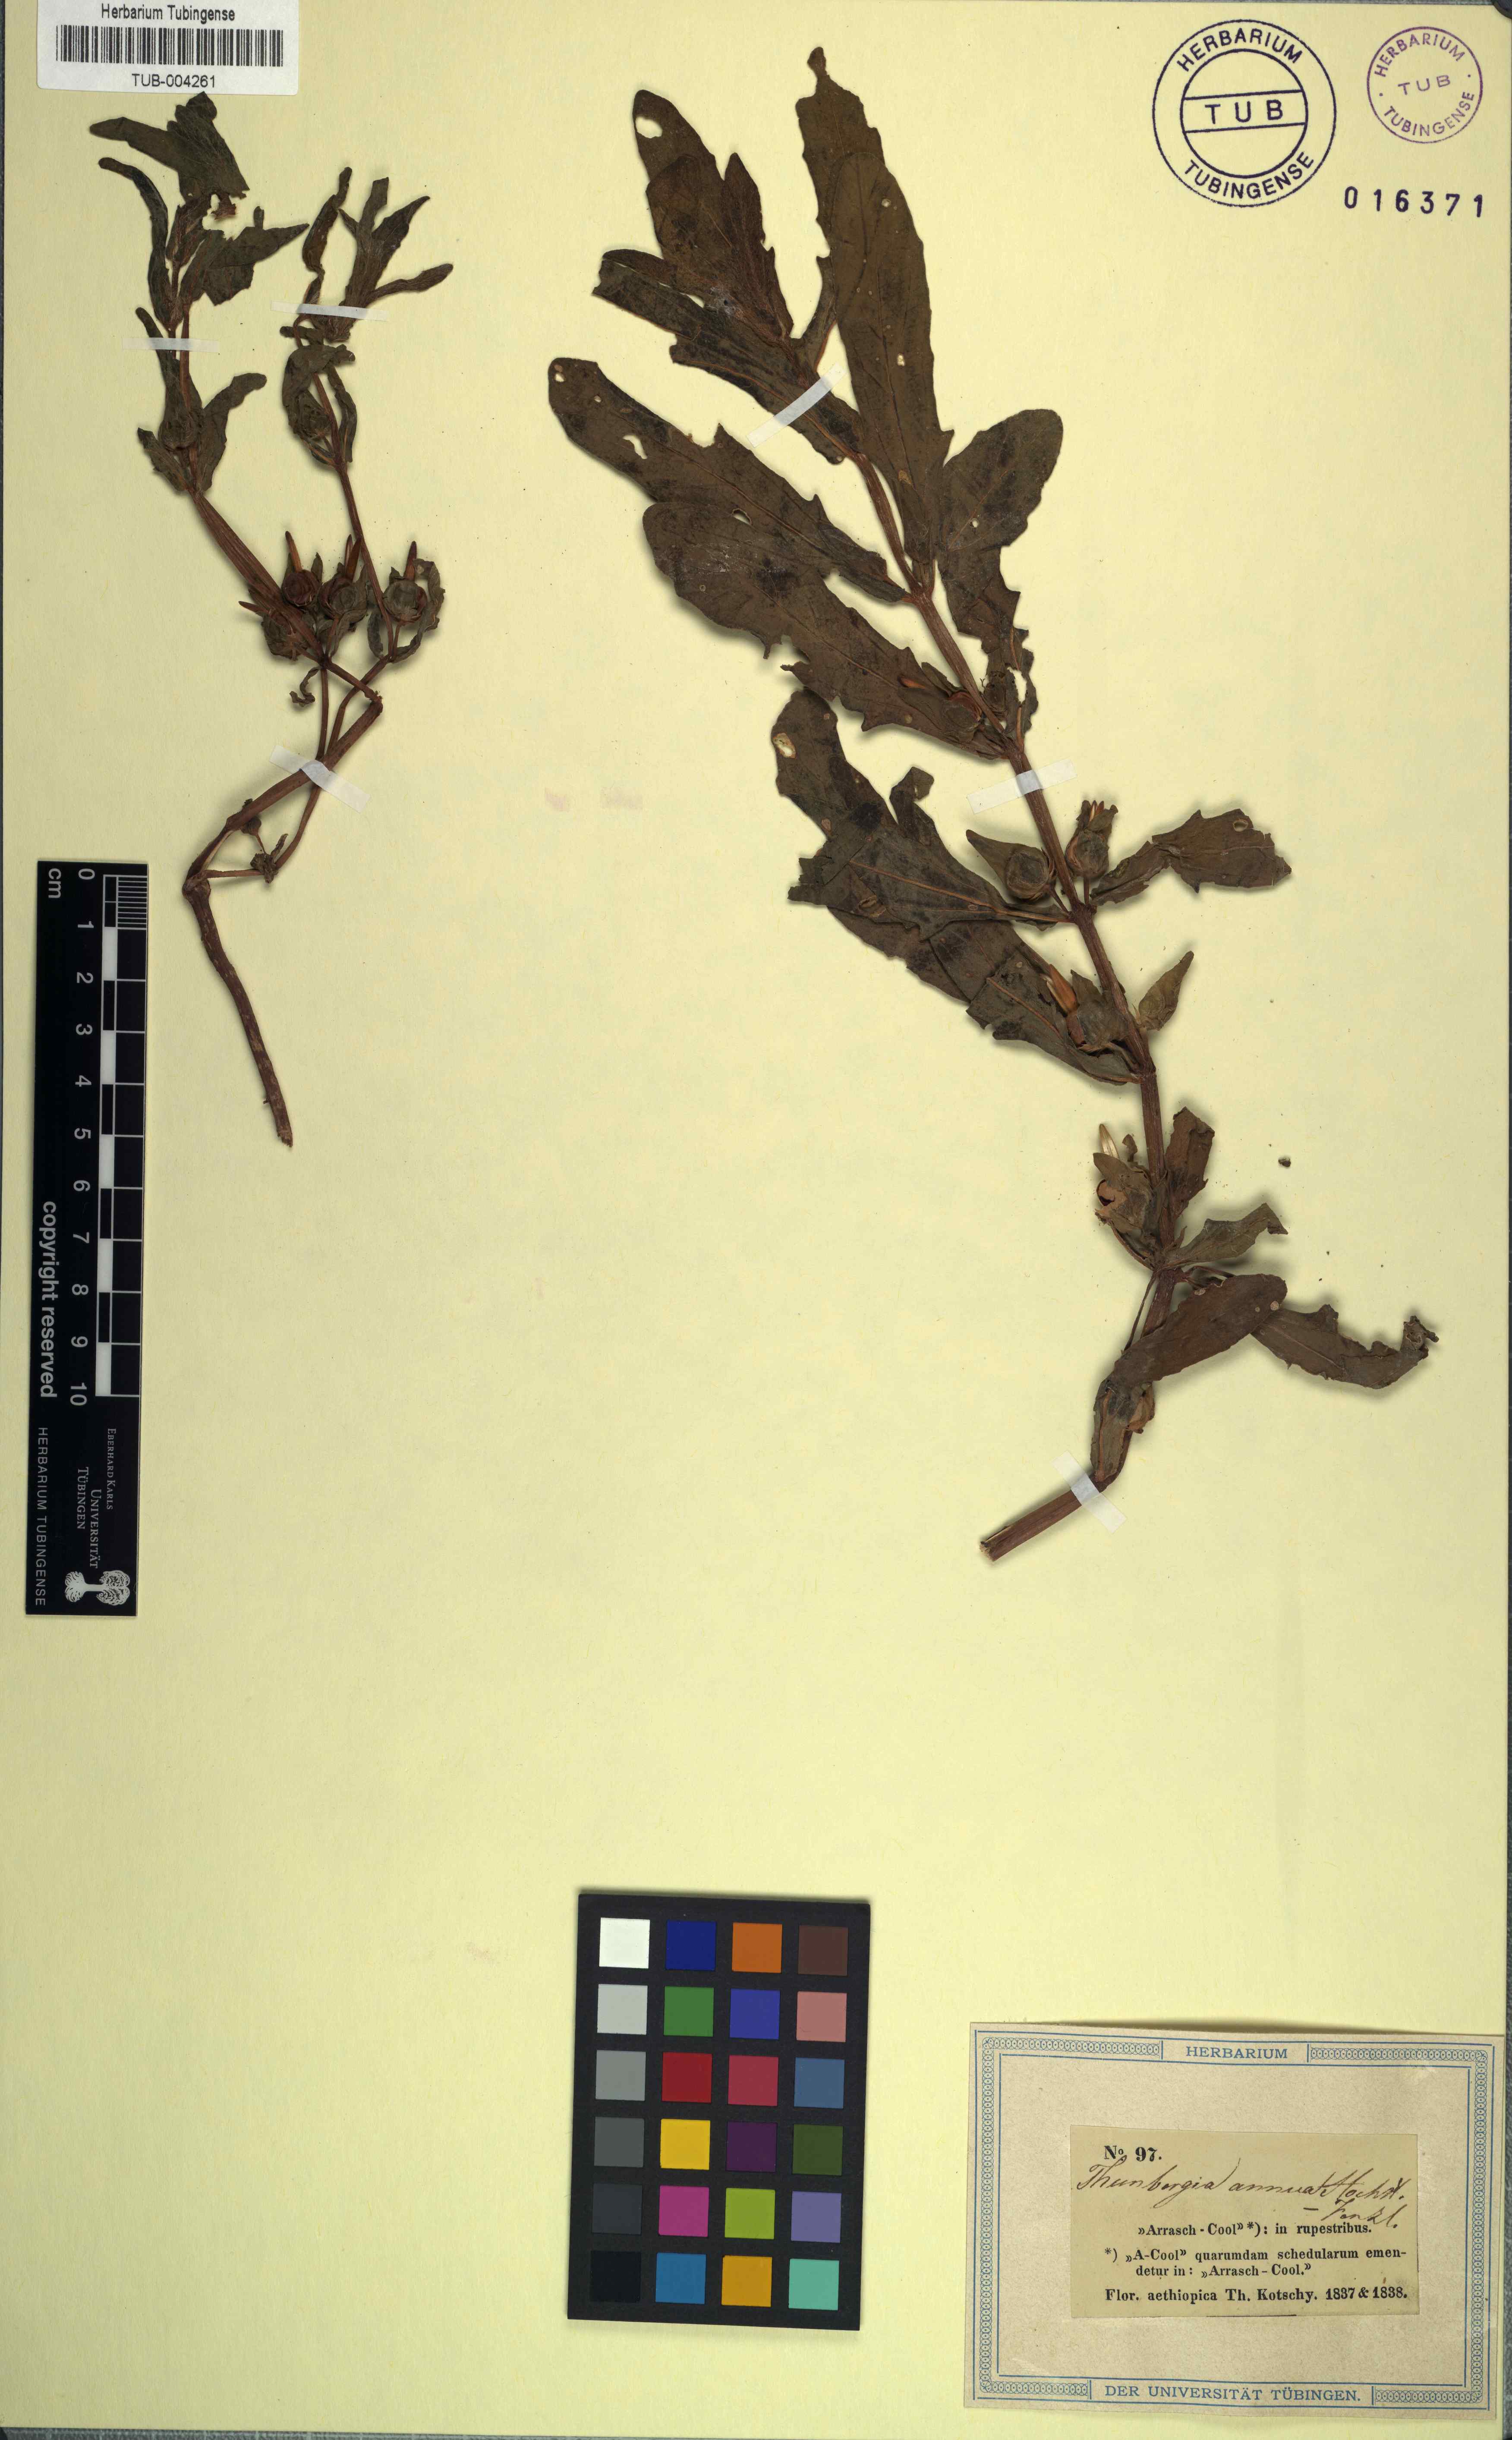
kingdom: Plantae
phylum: Tracheophyta
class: Magnoliopsida
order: Lamiales
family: Acanthaceae
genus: Thunbergia
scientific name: Thunbergia annua
